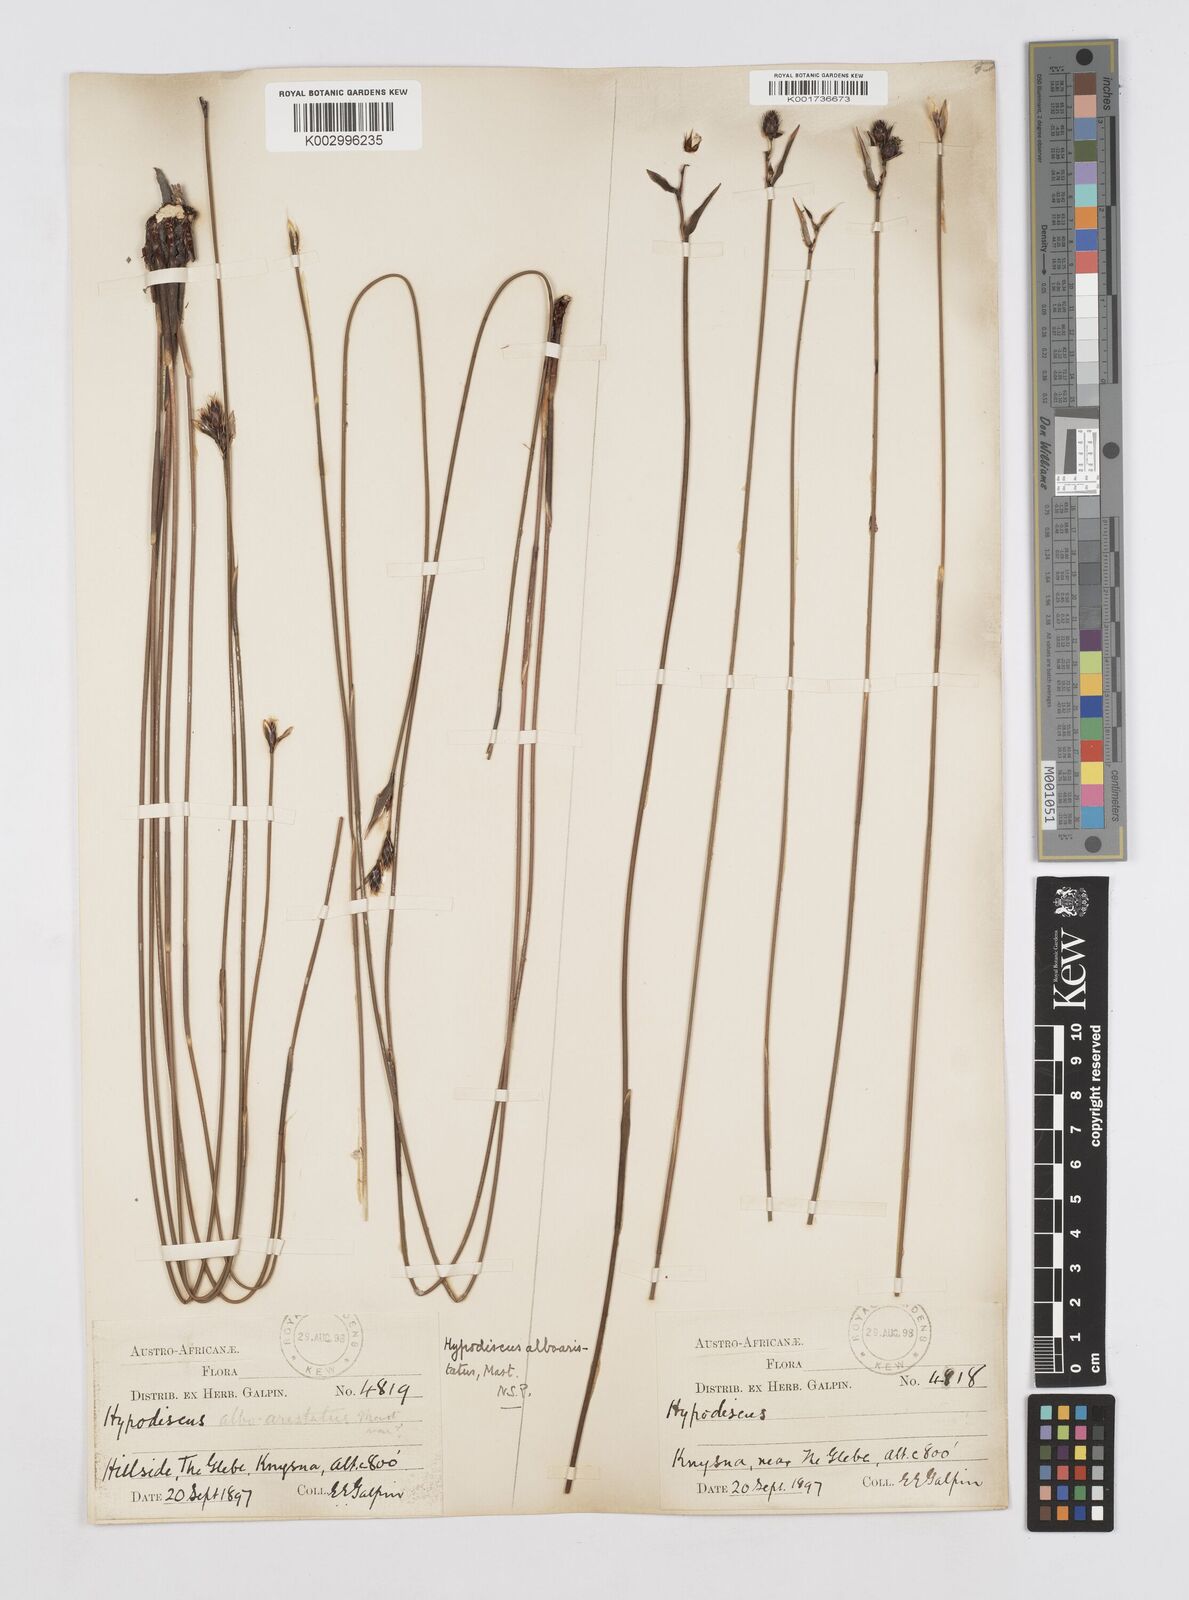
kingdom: Plantae
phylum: Tracheophyta
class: Liliopsida
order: Poales
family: Restionaceae
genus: Hypodiscus
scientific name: Hypodiscus alboaristatus
